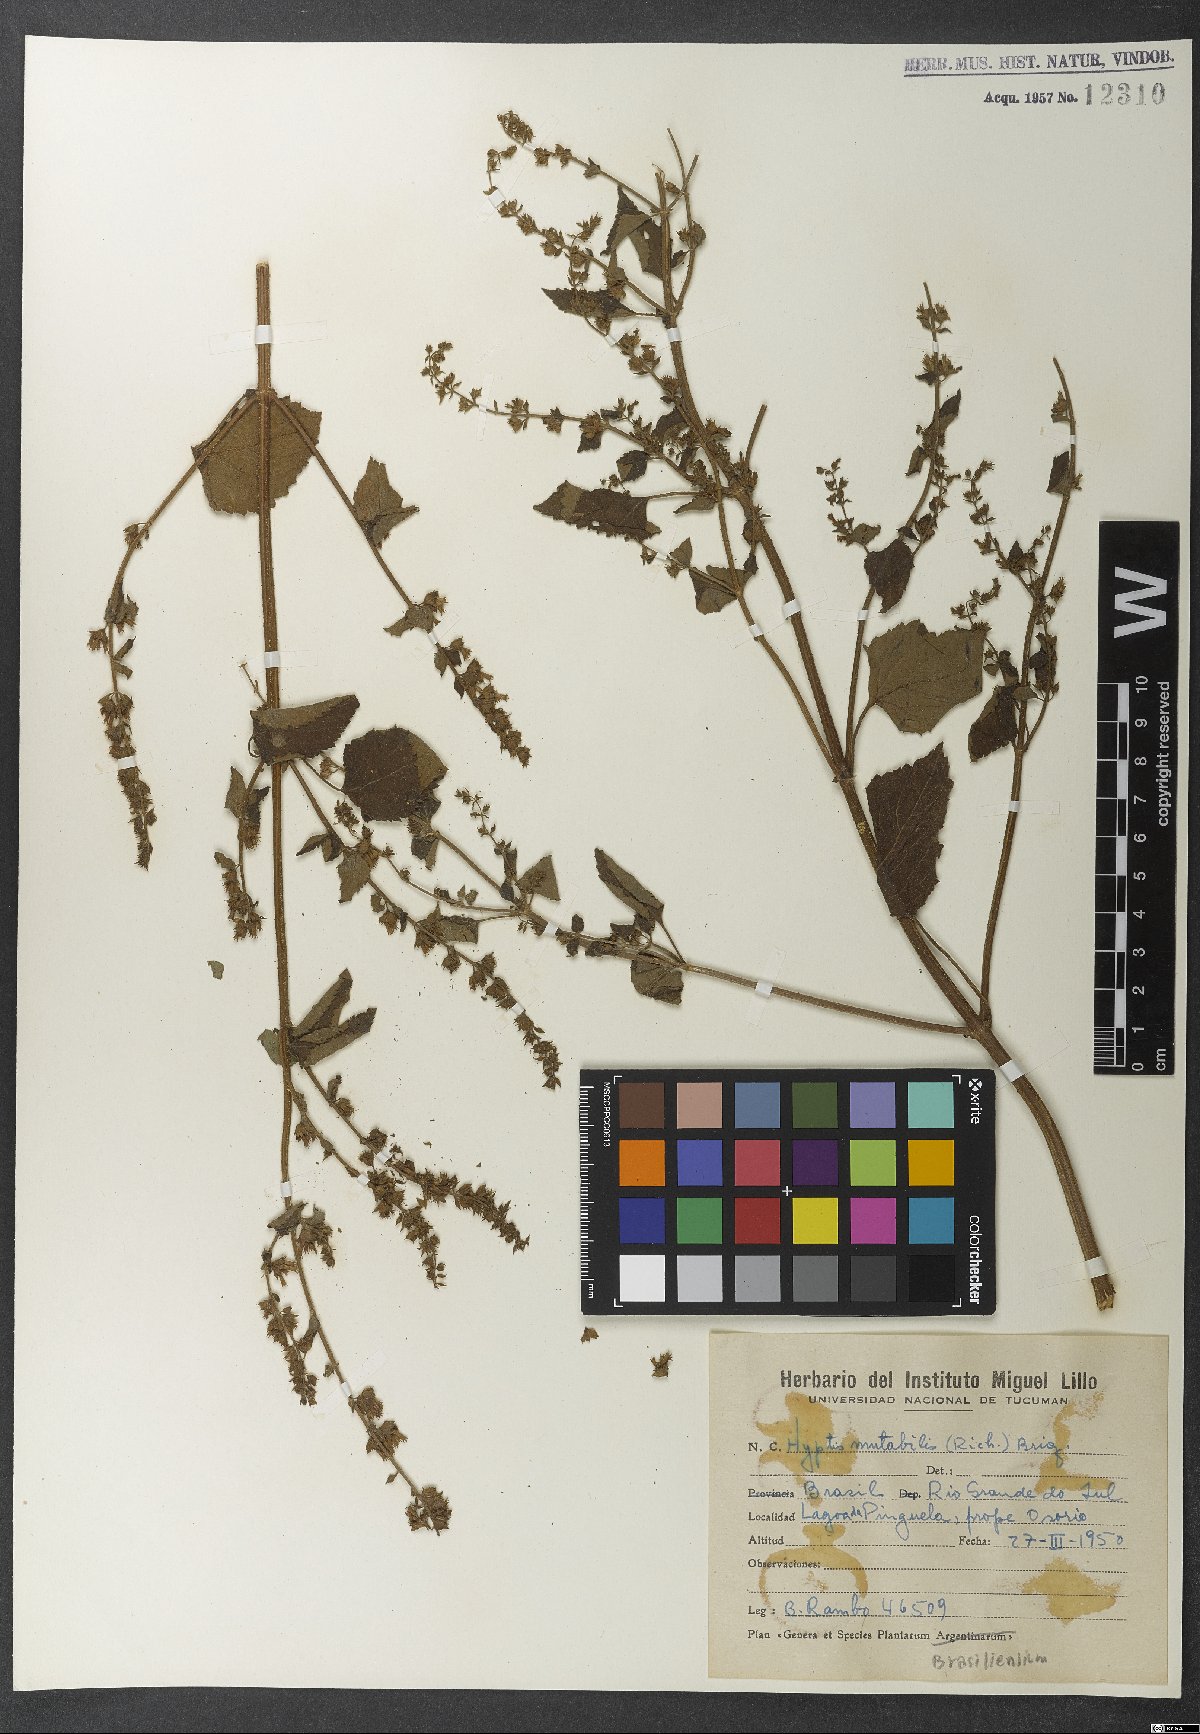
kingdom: Plantae
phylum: Tracheophyta
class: Magnoliopsida
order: Lamiales
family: Lamiaceae
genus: Cantinoa
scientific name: Cantinoa mutabilis
